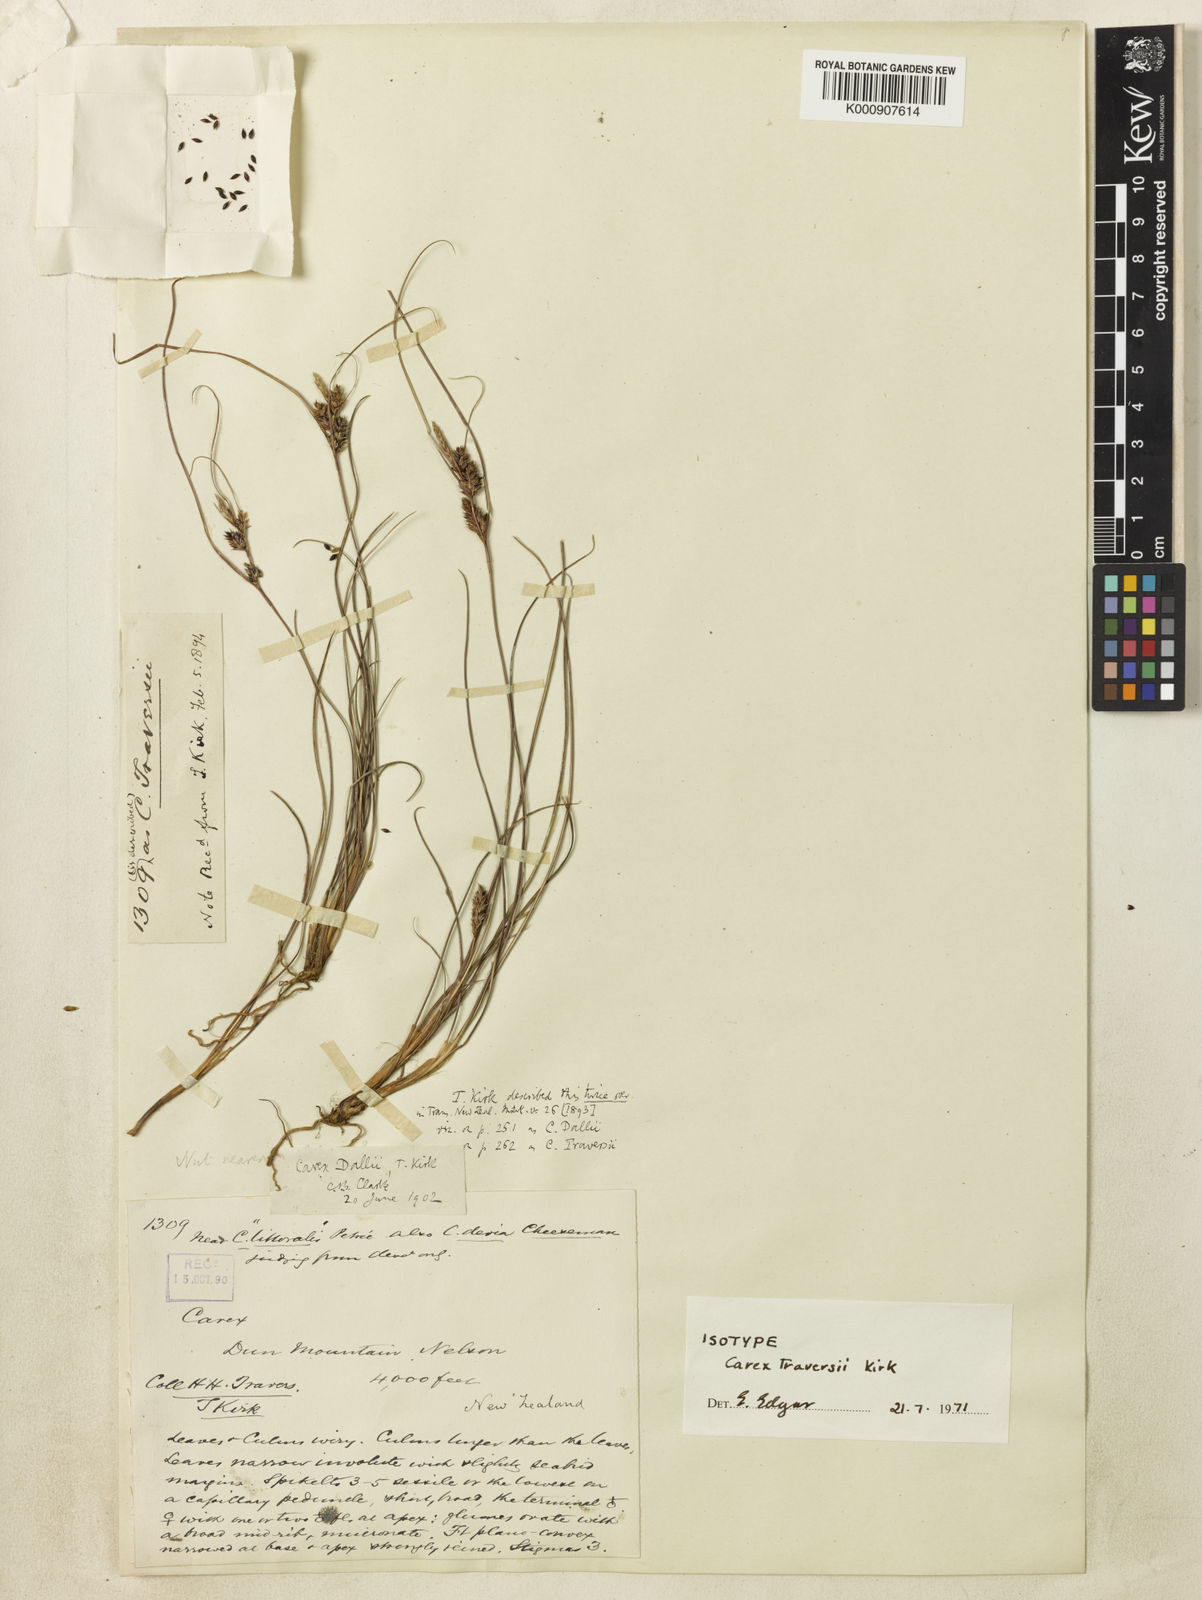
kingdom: Plantae
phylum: Tracheophyta
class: Liliopsida
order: Poales
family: Cyperaceae
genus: Carex
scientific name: Carex dallii
